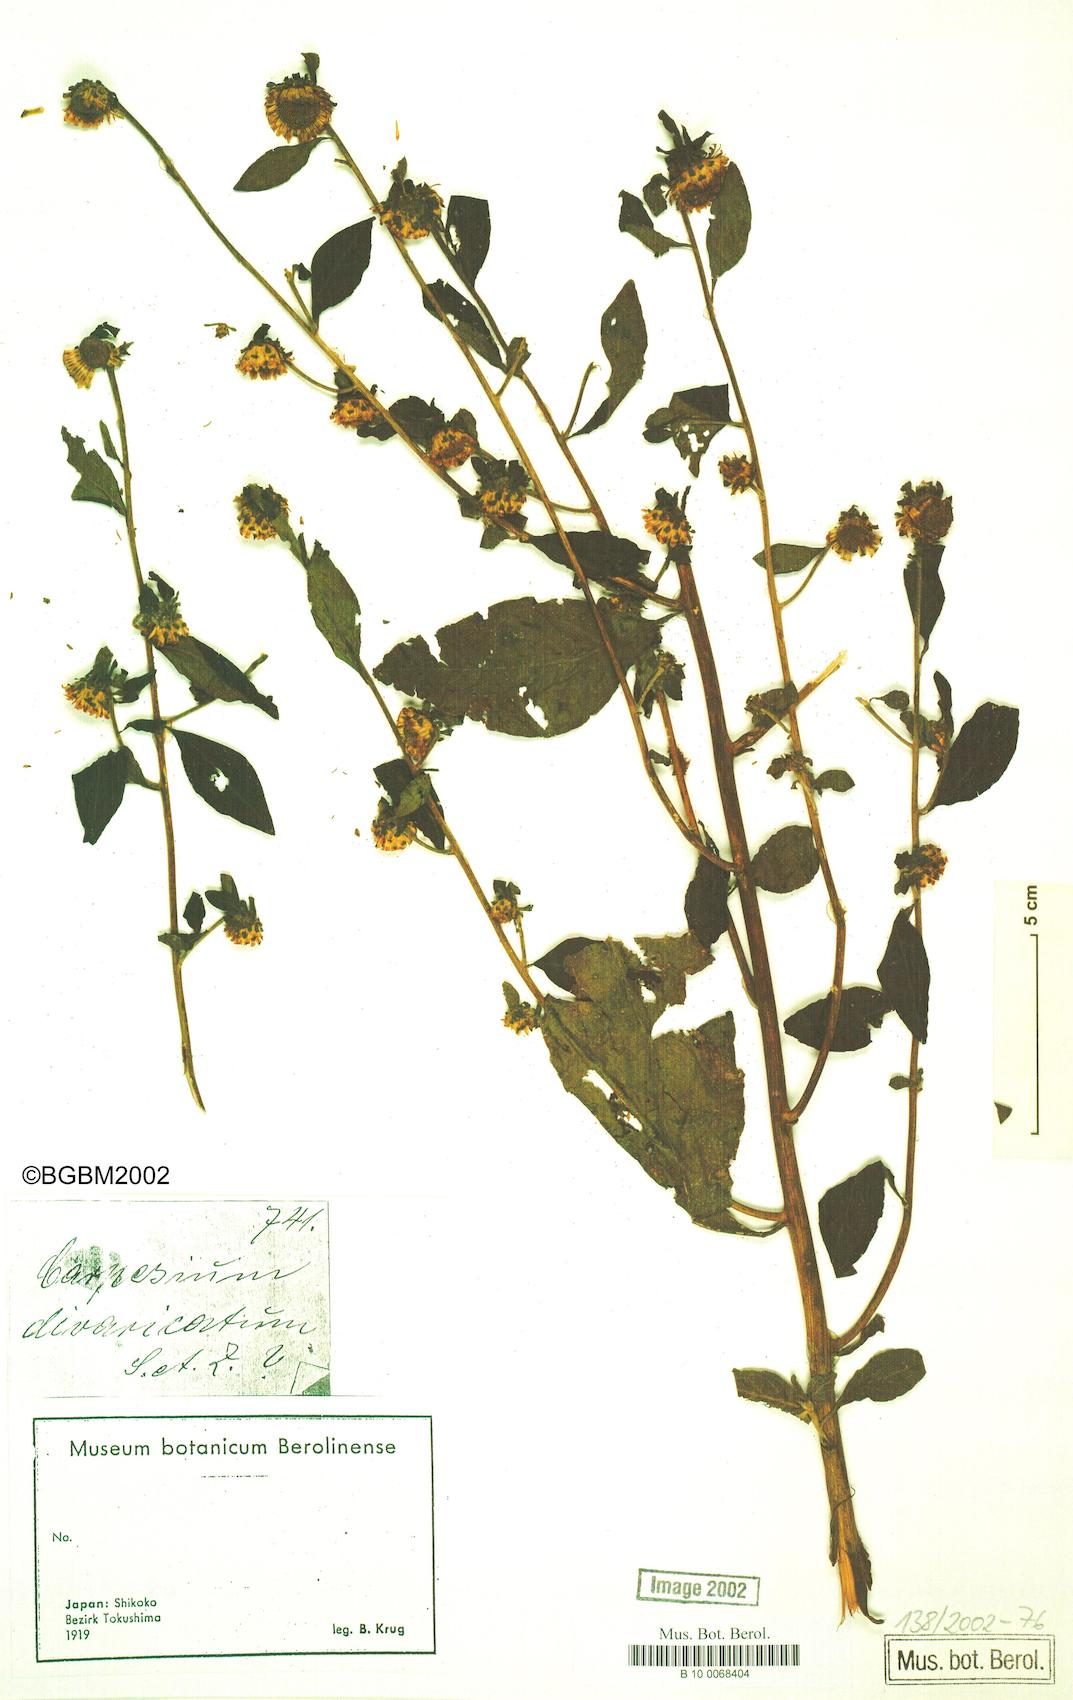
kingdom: Plantae
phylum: Tracheophyta
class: Magnoliopsida
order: Asterales
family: Asteraceae
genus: Carpesium
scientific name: Carpesium cernuum
